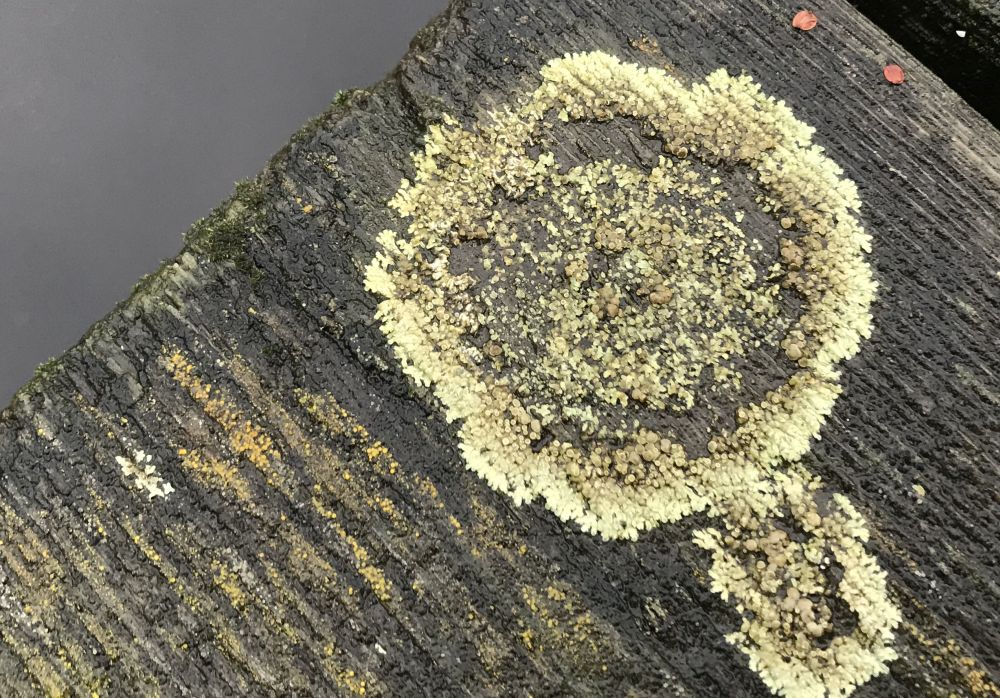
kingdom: Fungi
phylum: Ascomycota
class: Lecanoromycetes
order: Lecanorales
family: Lecanoraceae
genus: Protoparmeliopsis
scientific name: Protoparmeliopsis muralis
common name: randfliget kantskivelav
